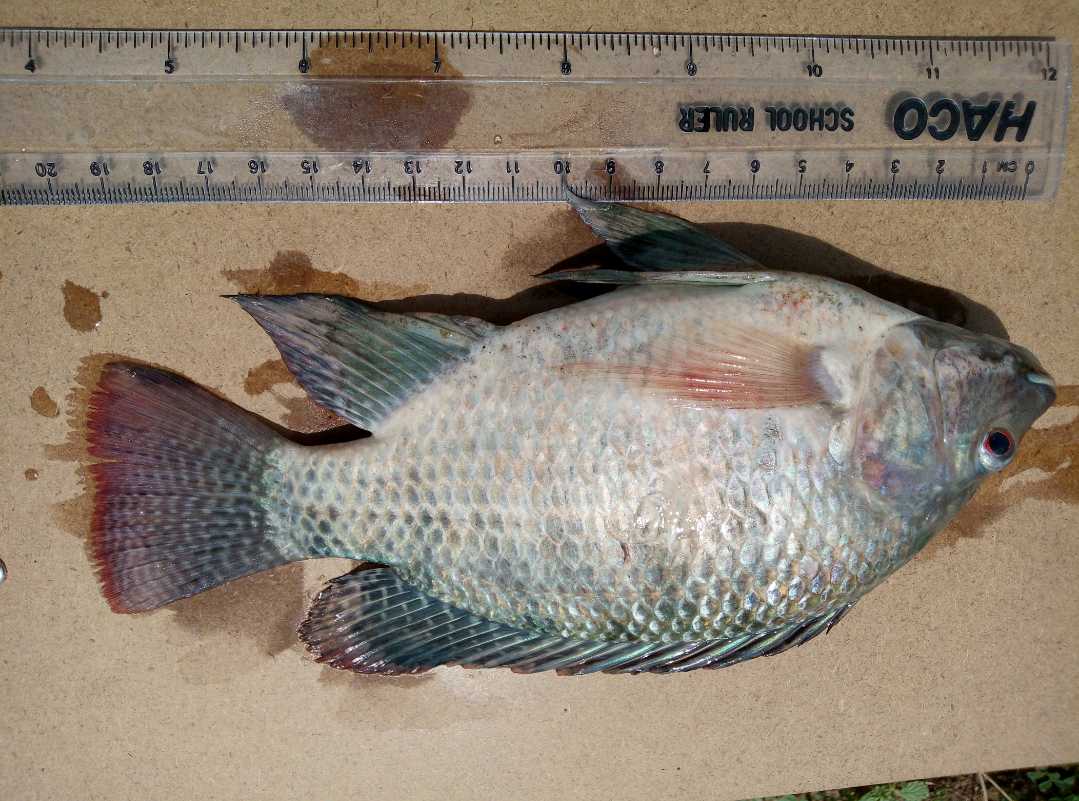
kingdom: Animalia
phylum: Chordata
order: Perciformes
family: Cichlidae
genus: Oreochromis
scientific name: Oreochromis spilurus
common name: Sabaki tilapia
